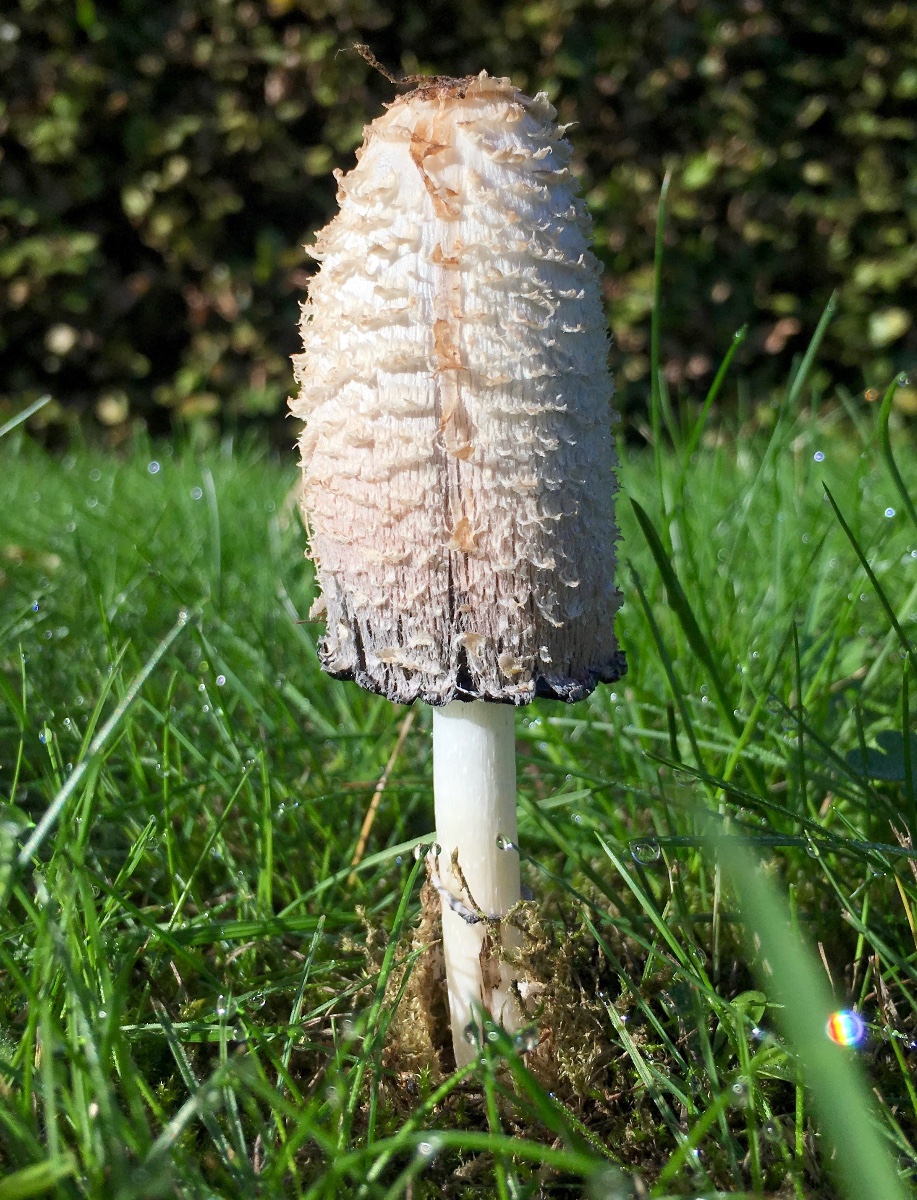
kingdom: Fungi
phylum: Basidiomycota
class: Agaricomycetes
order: Agaricales
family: Agaricaceae
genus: Coprinus
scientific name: Coprinus comatus
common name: stor parykhat
